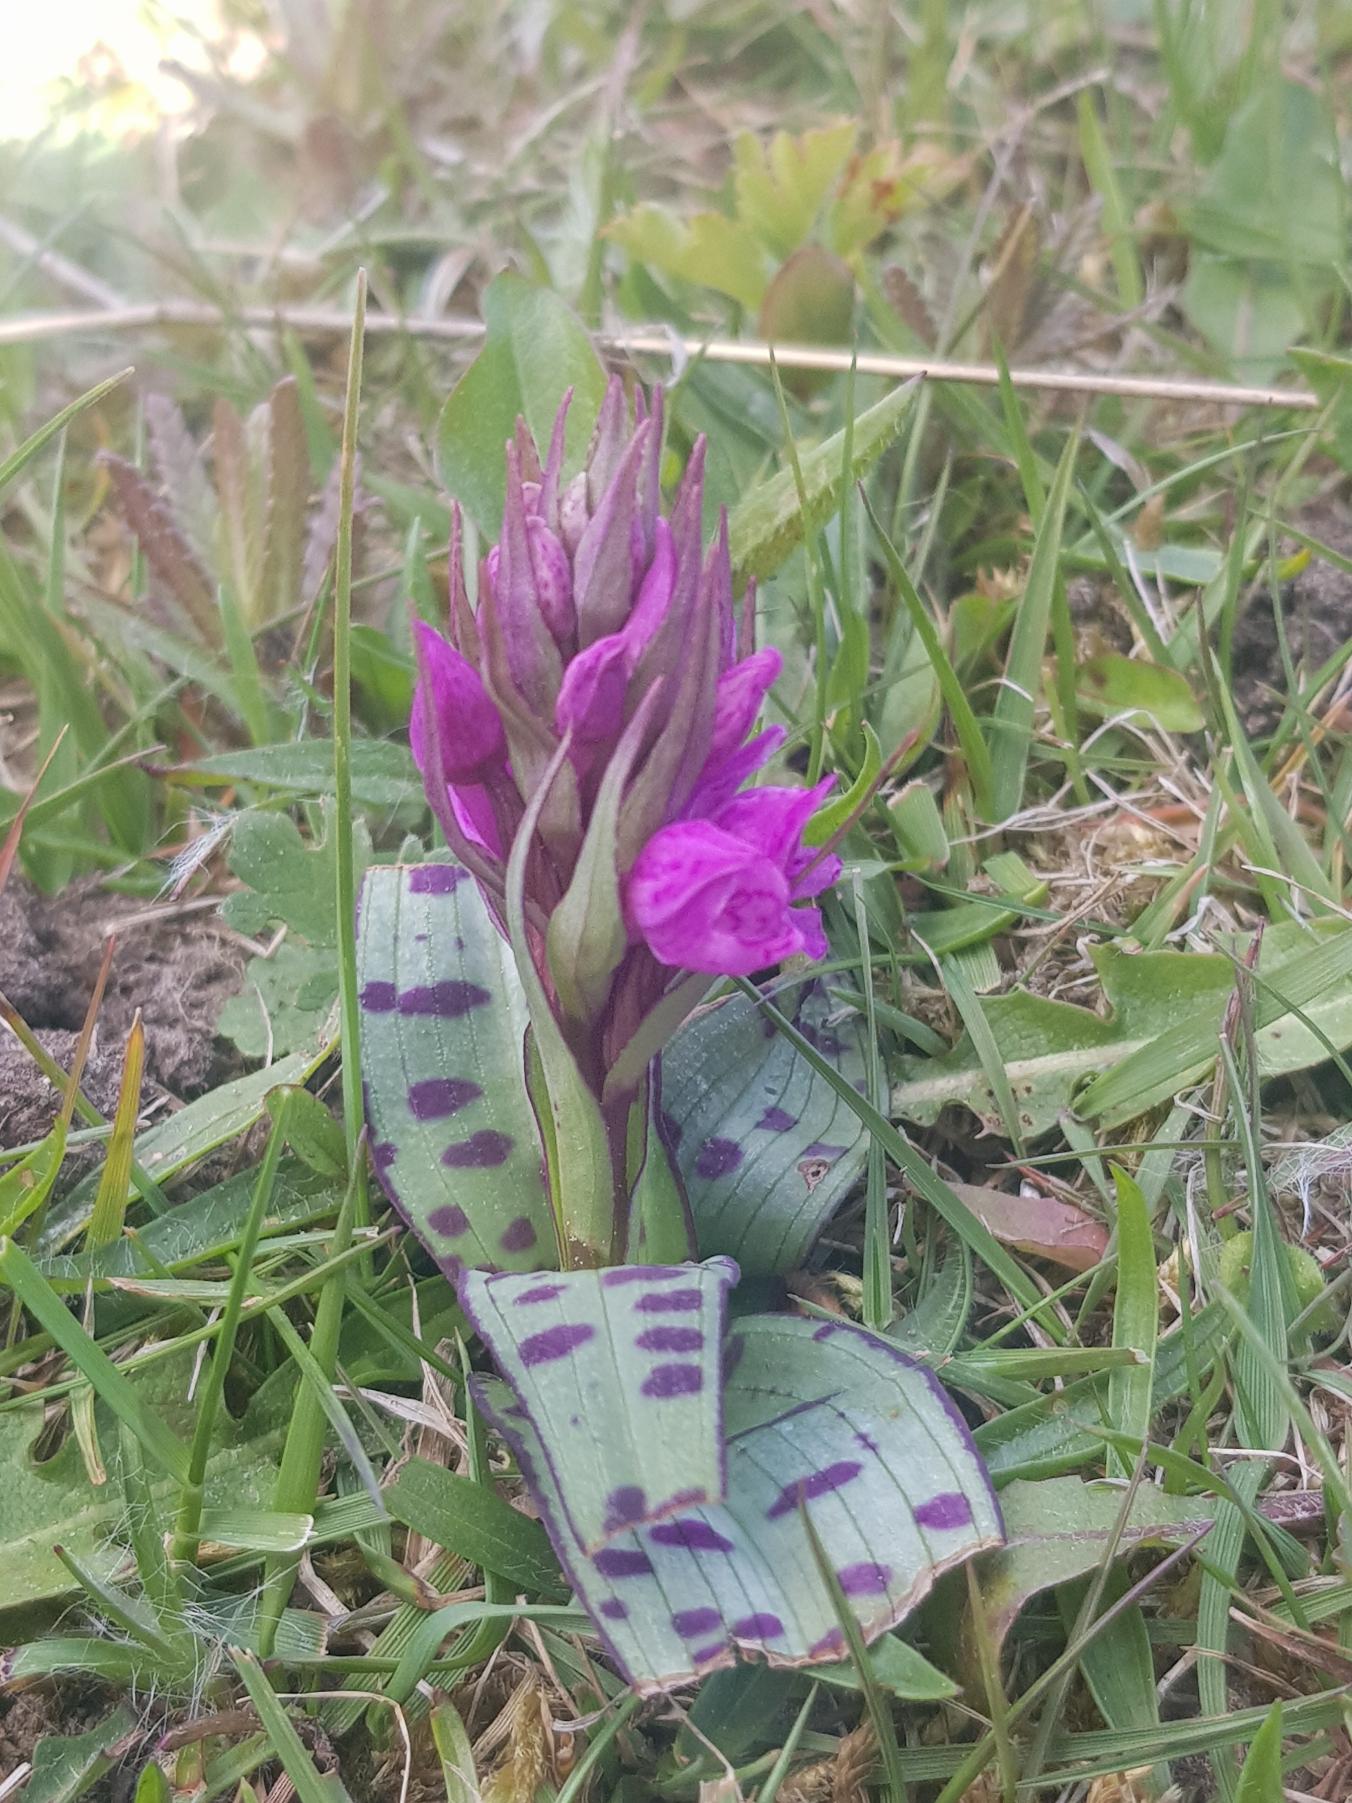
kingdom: Plantae
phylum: Tracheophyta
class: Liliopsida
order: Asparagales
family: Orchidaceae
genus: Dactylorhiza
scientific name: Dactylorhiza majalis
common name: Maj-gøgeurt
